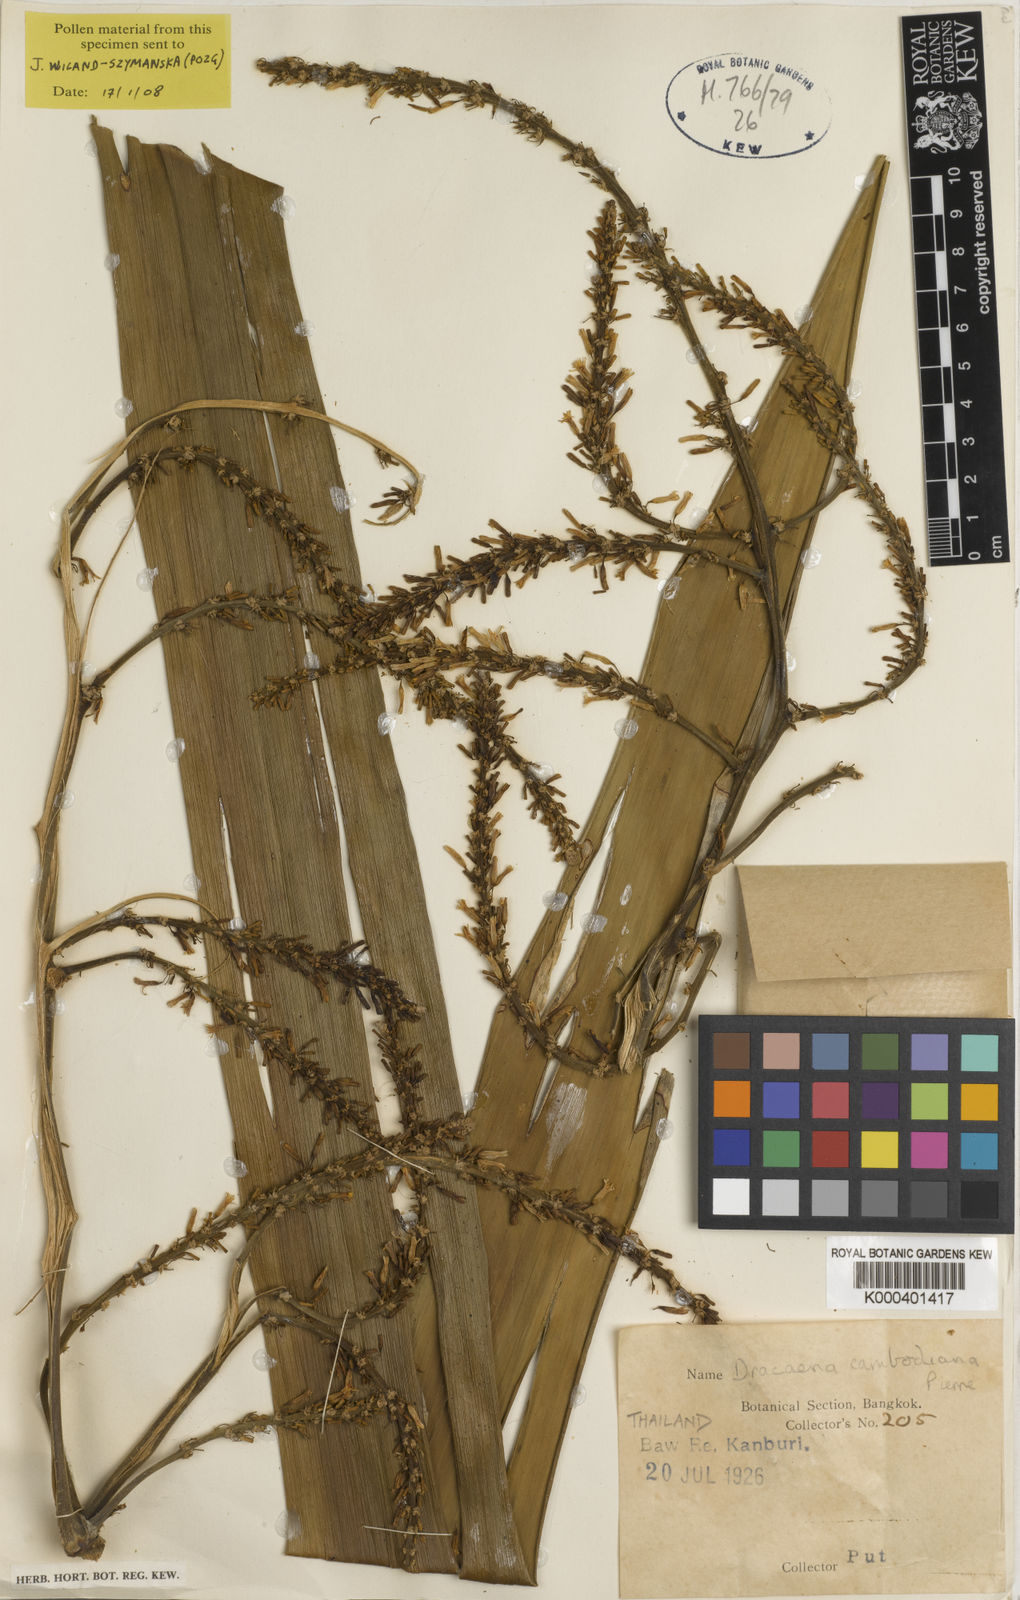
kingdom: Plantae
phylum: Tracheophyta
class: Liliopsida
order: Asparagales
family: Asparagaceae
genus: Dracaena
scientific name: Dracaena cambodiana
